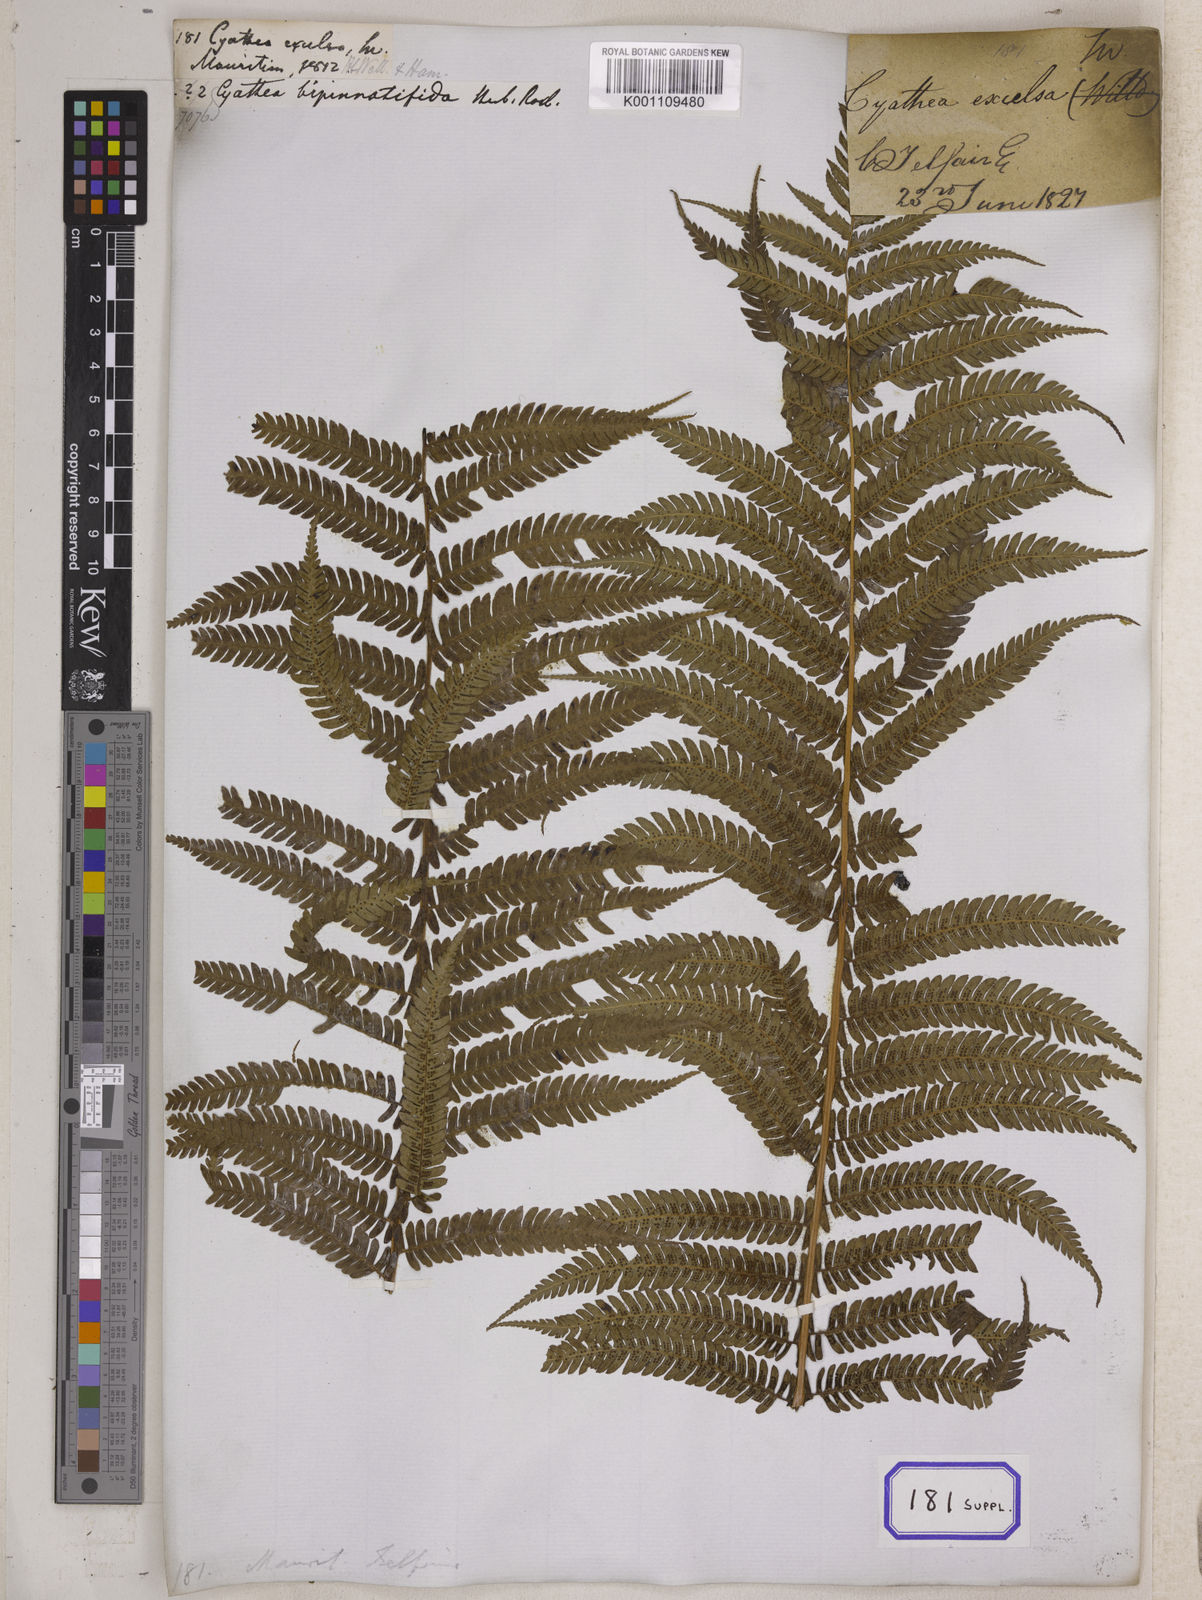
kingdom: Plantae
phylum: Tracheophyta
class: Polypodiopsida
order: Cyatheales
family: Cyatheaceae
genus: Alsophila
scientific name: Alsophila celsa
